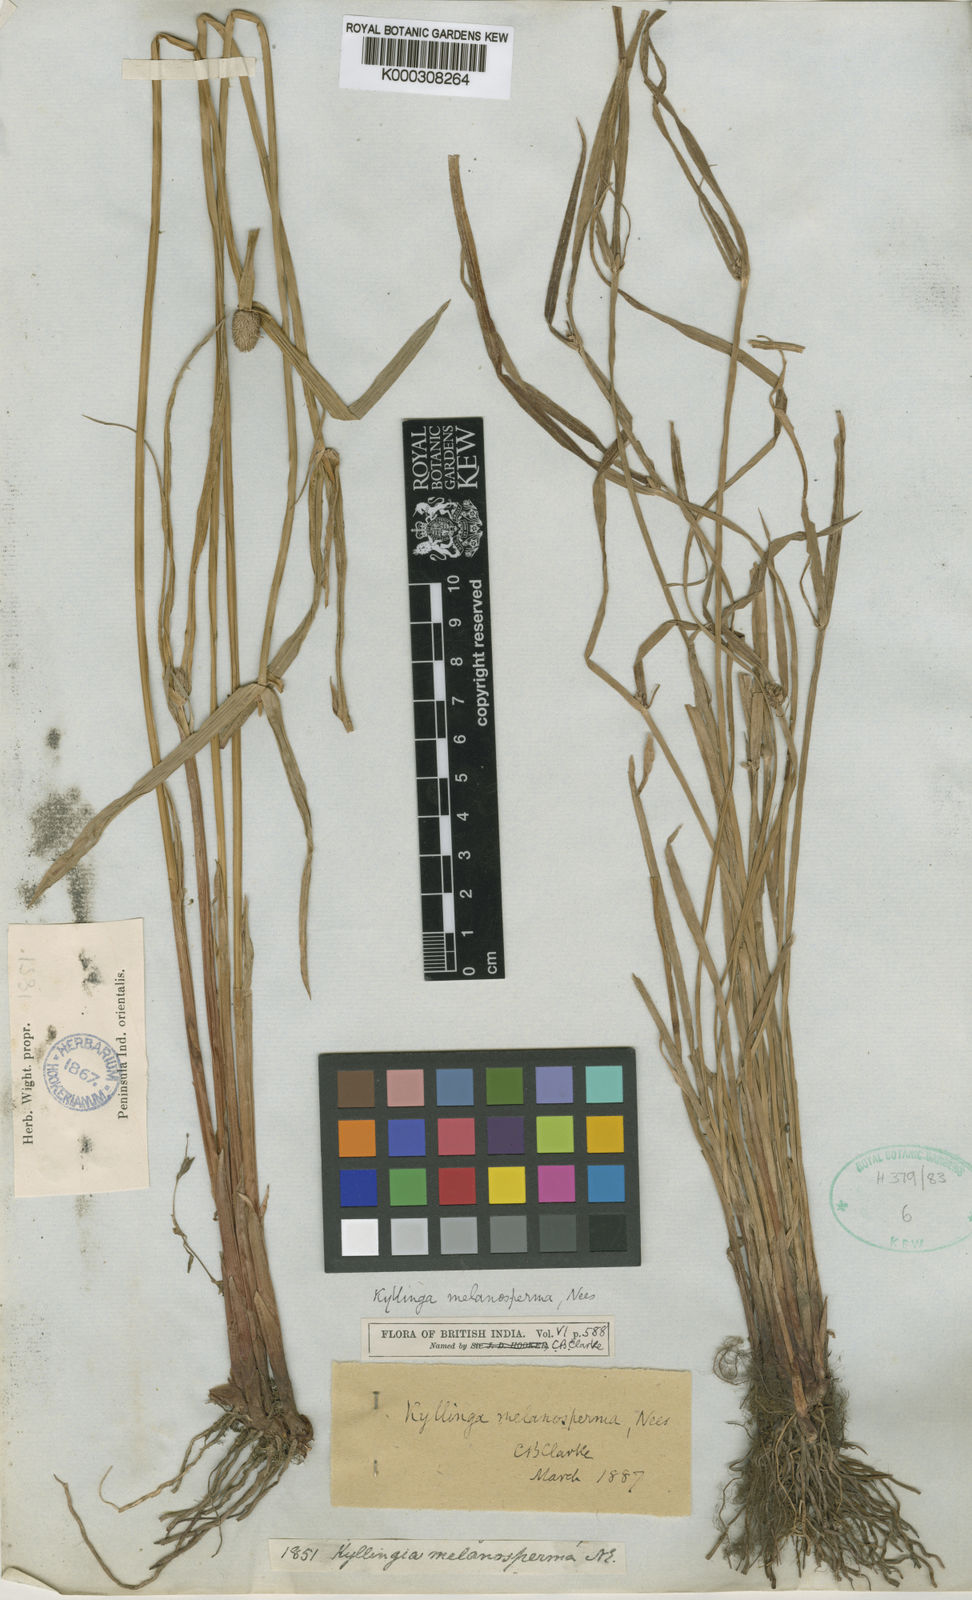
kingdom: Plantae
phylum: Tracheophyta
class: Liliopsida
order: Poales
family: Cyperaceae
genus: Cyperus
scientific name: Cyperus melanospermus
